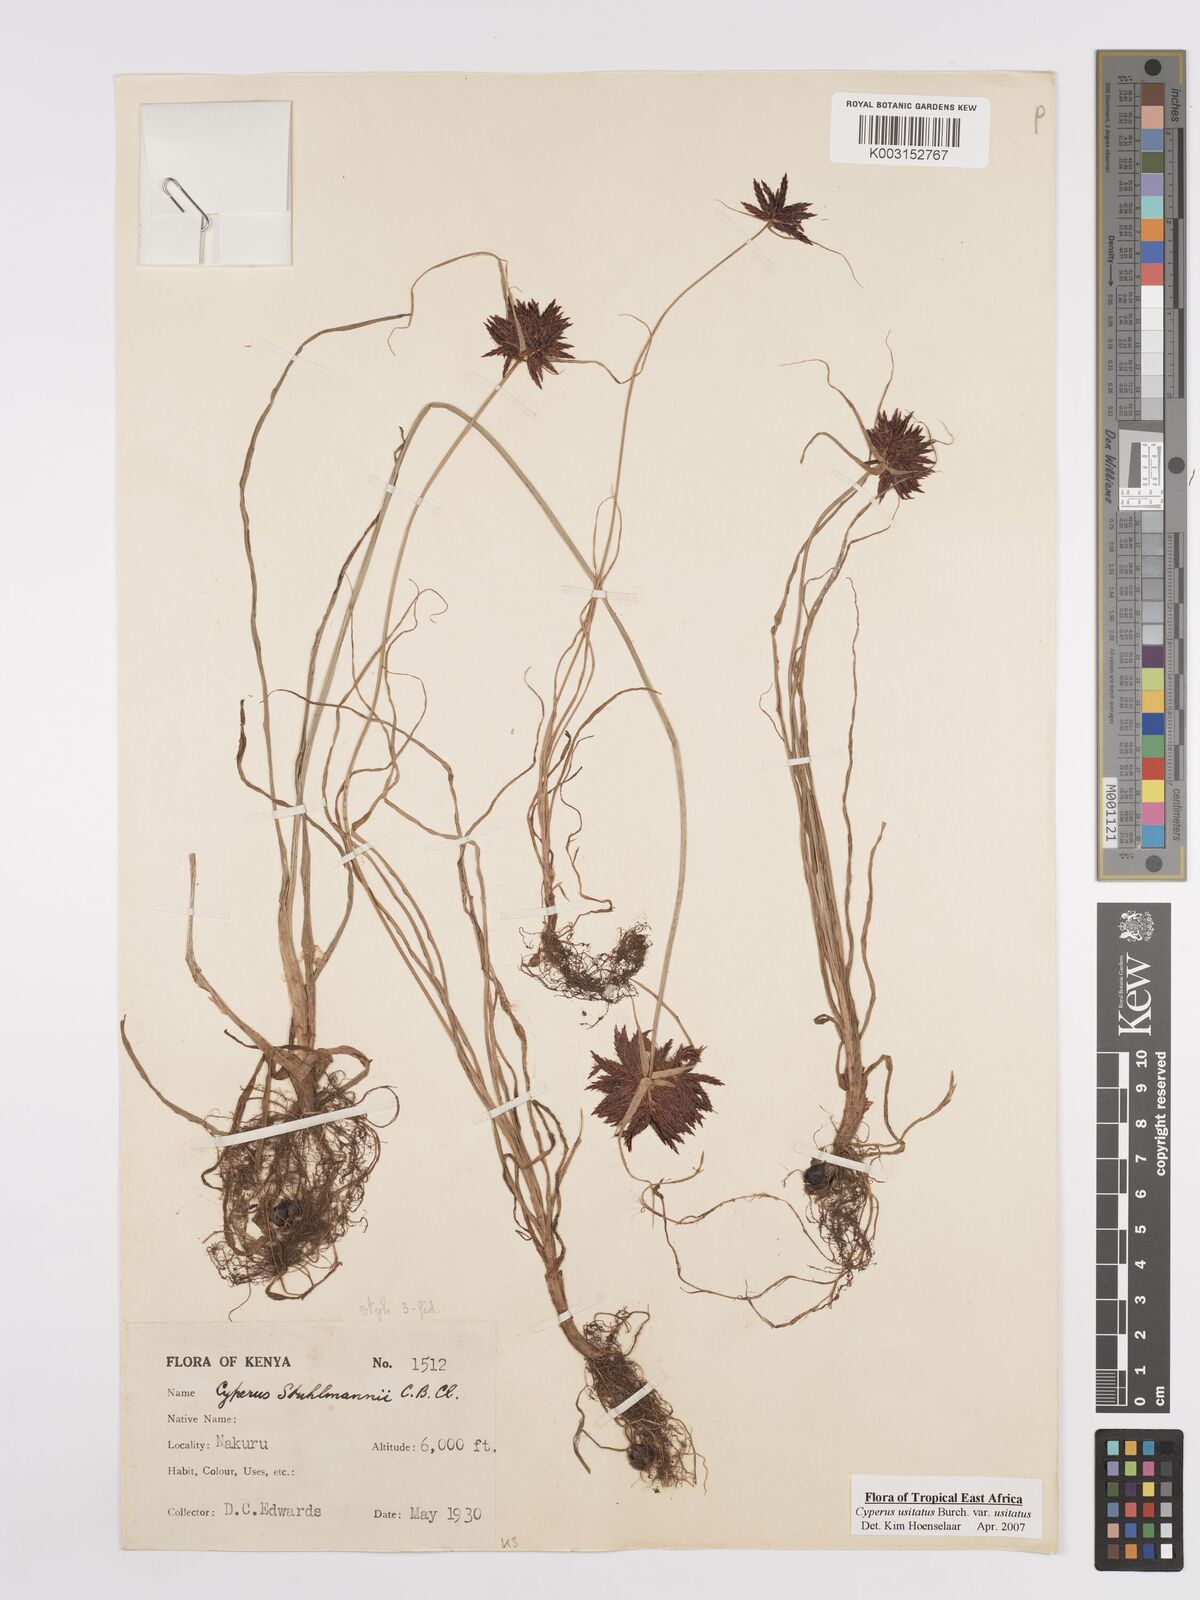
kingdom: Plantae
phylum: Tracheophyta
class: Liliopsida
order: Poales
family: Cyperaceae
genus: Cyperus
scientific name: Cyperus usitatus
